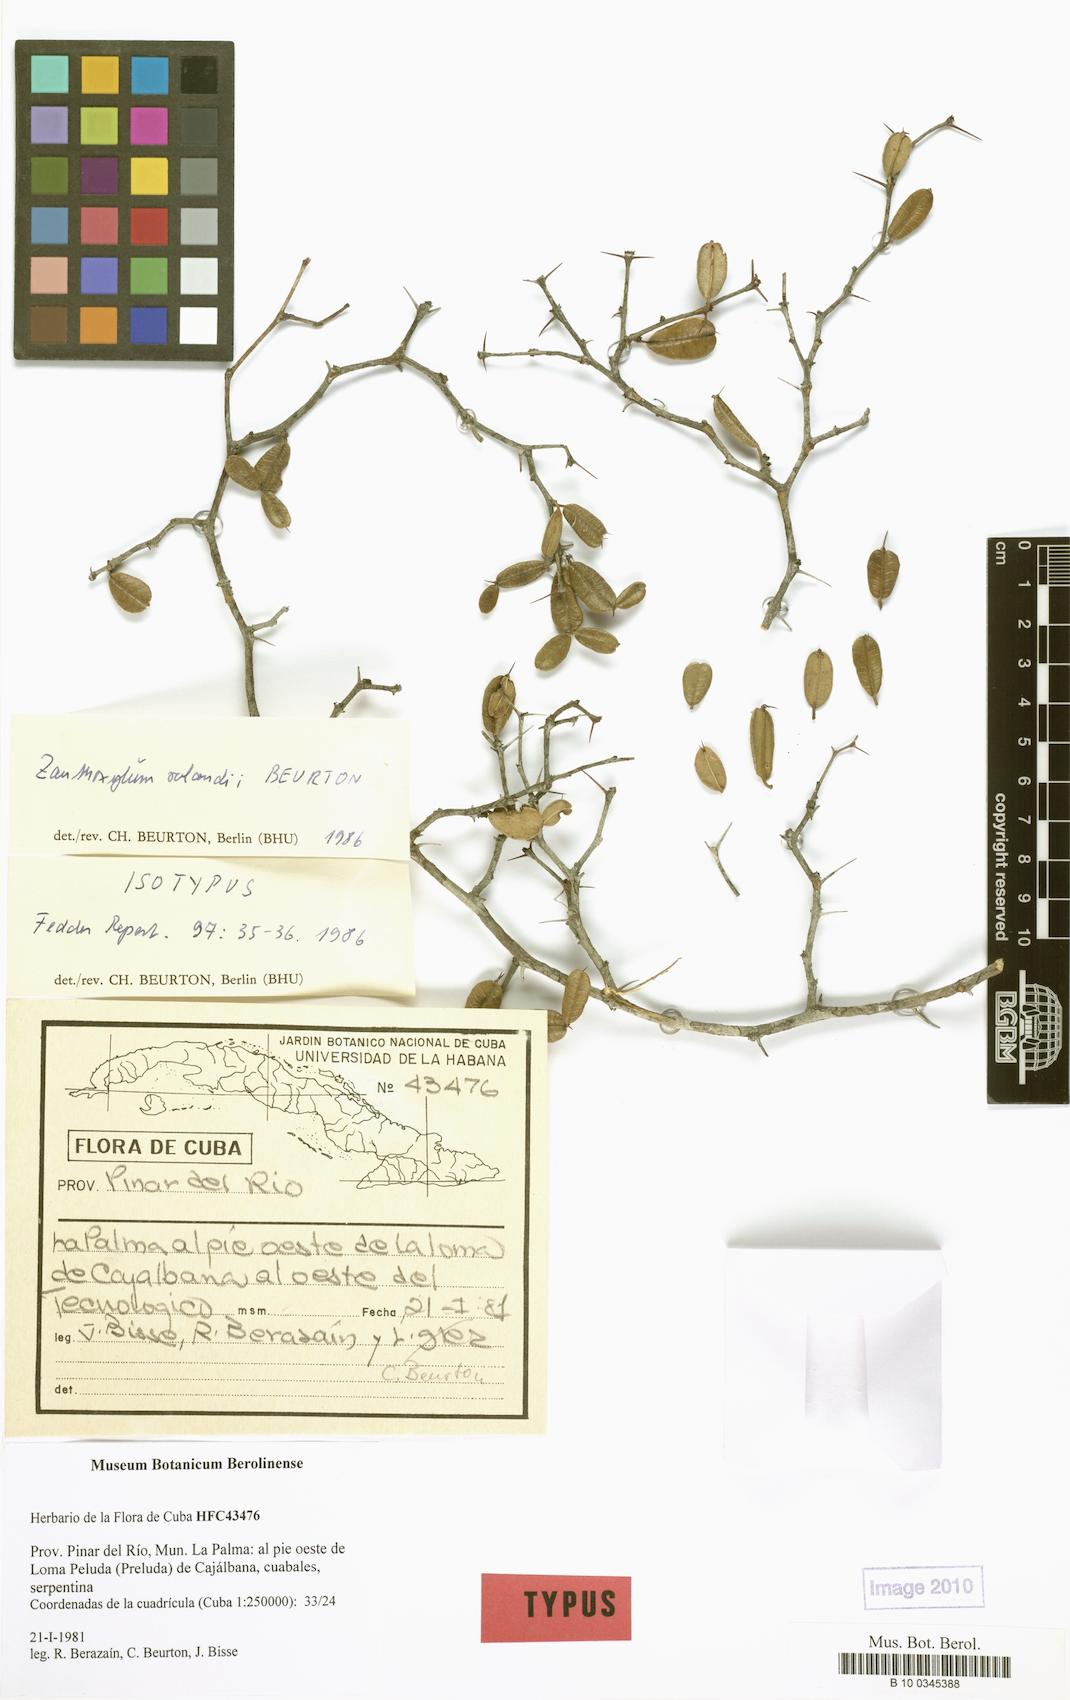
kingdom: Plantae
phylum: Tracheophyta
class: Magnoliopsida
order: Sapindales
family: Rutaceae
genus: Zanthoxylum
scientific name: Zanthoxylum dumosum
